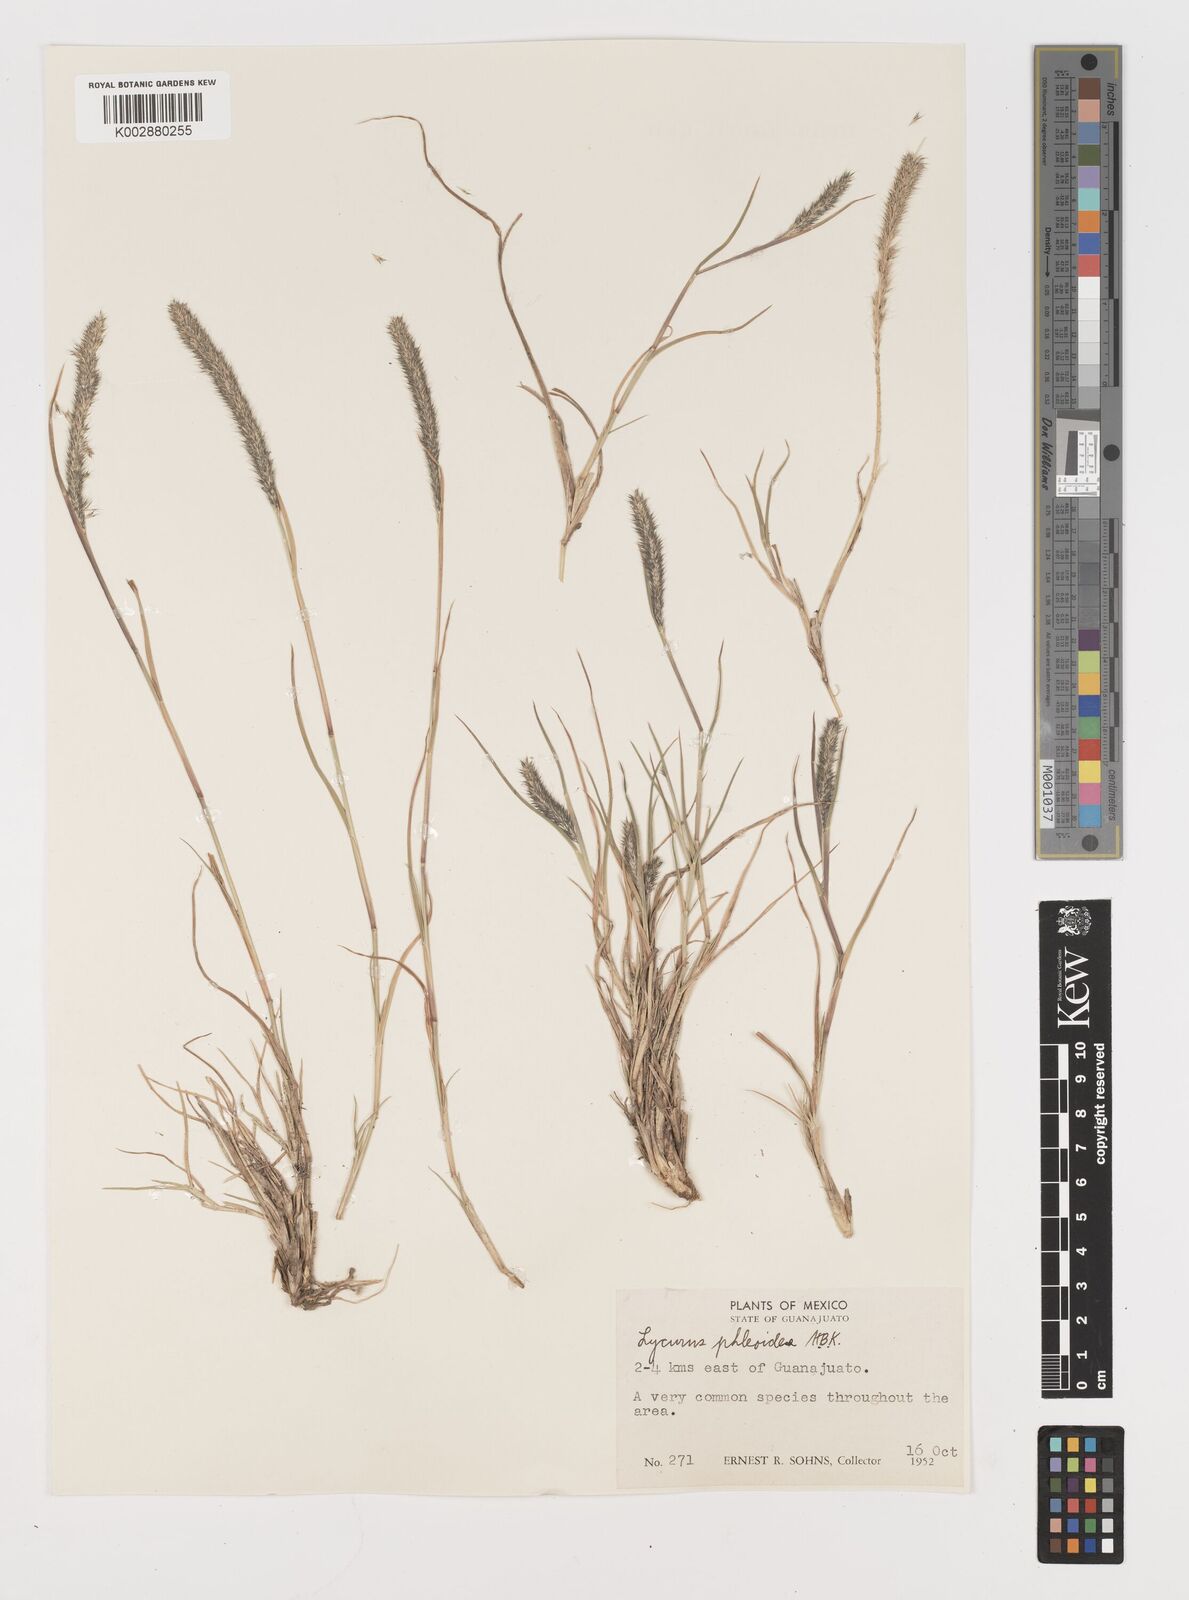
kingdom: Plantae
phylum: Tracheophyta
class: Liliopsida
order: Poales
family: Poaceae
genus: Muhlenbergia
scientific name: Muhlenbergia alopecuroides
